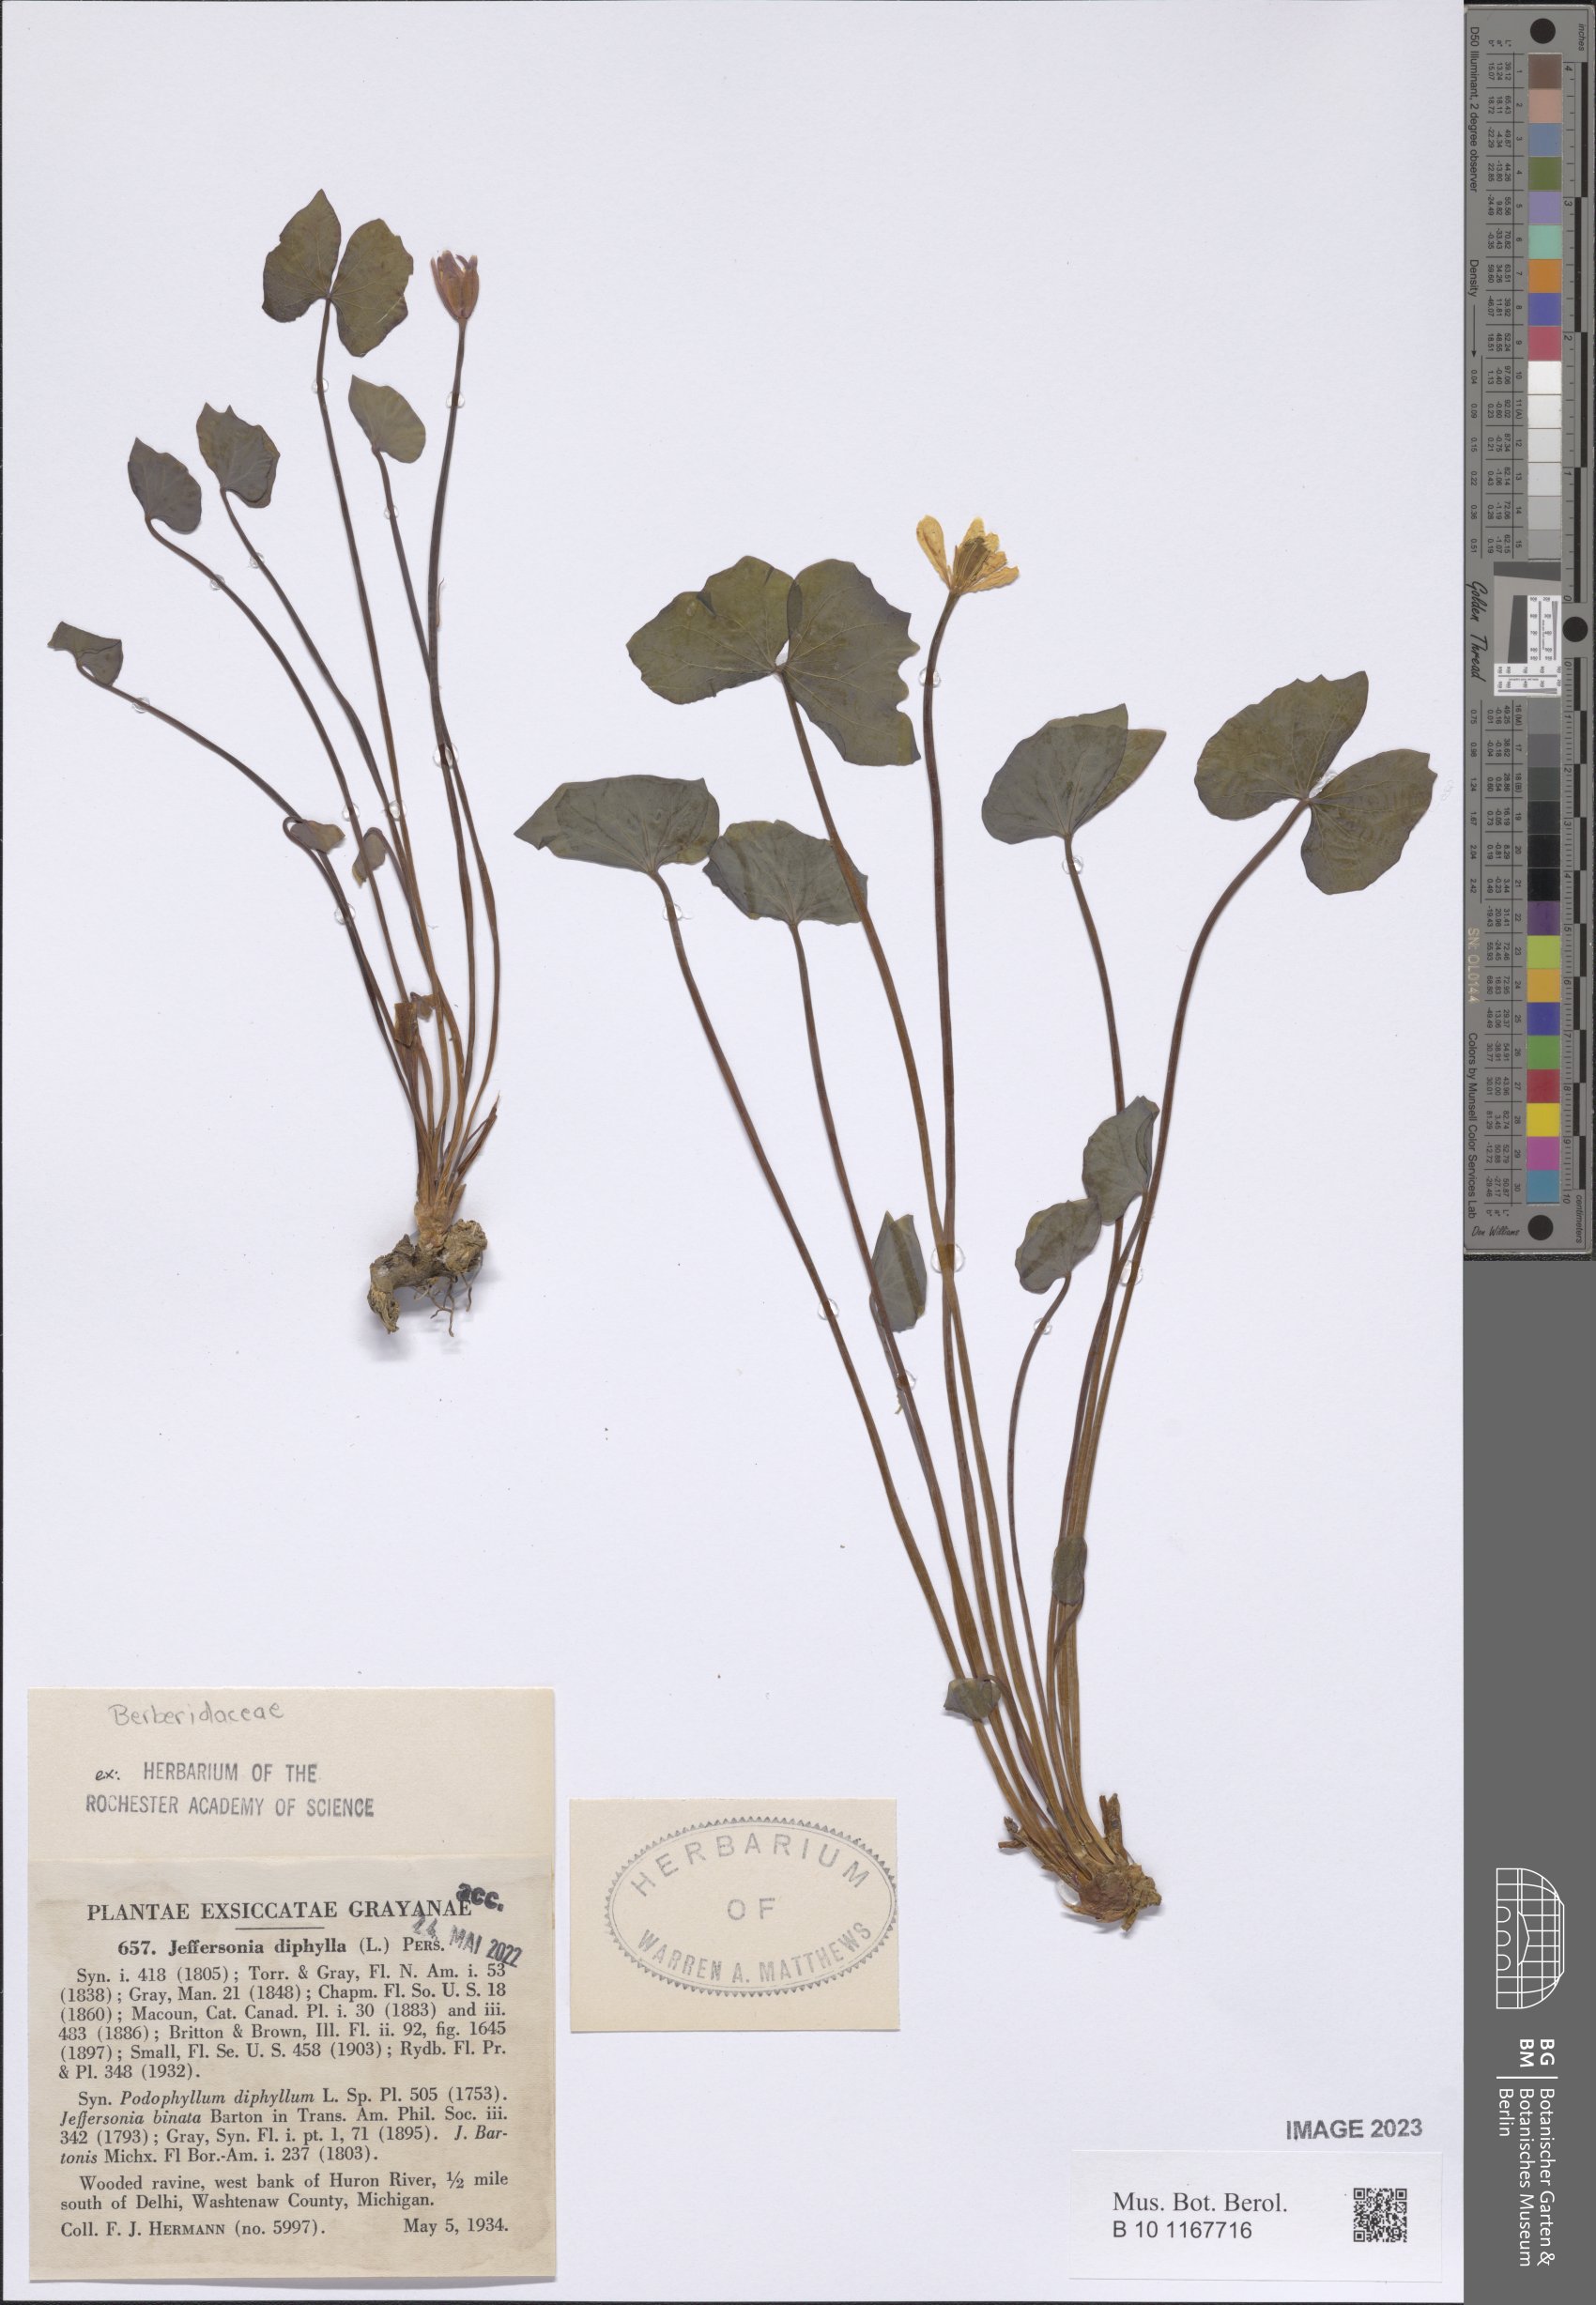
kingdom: Plantae
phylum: Tracheophyta
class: Magnoliopsida
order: Ranunculales
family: Berberidaceae
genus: Jeffersonia
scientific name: Jeffersonia diphylla
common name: Rheumatism-root
